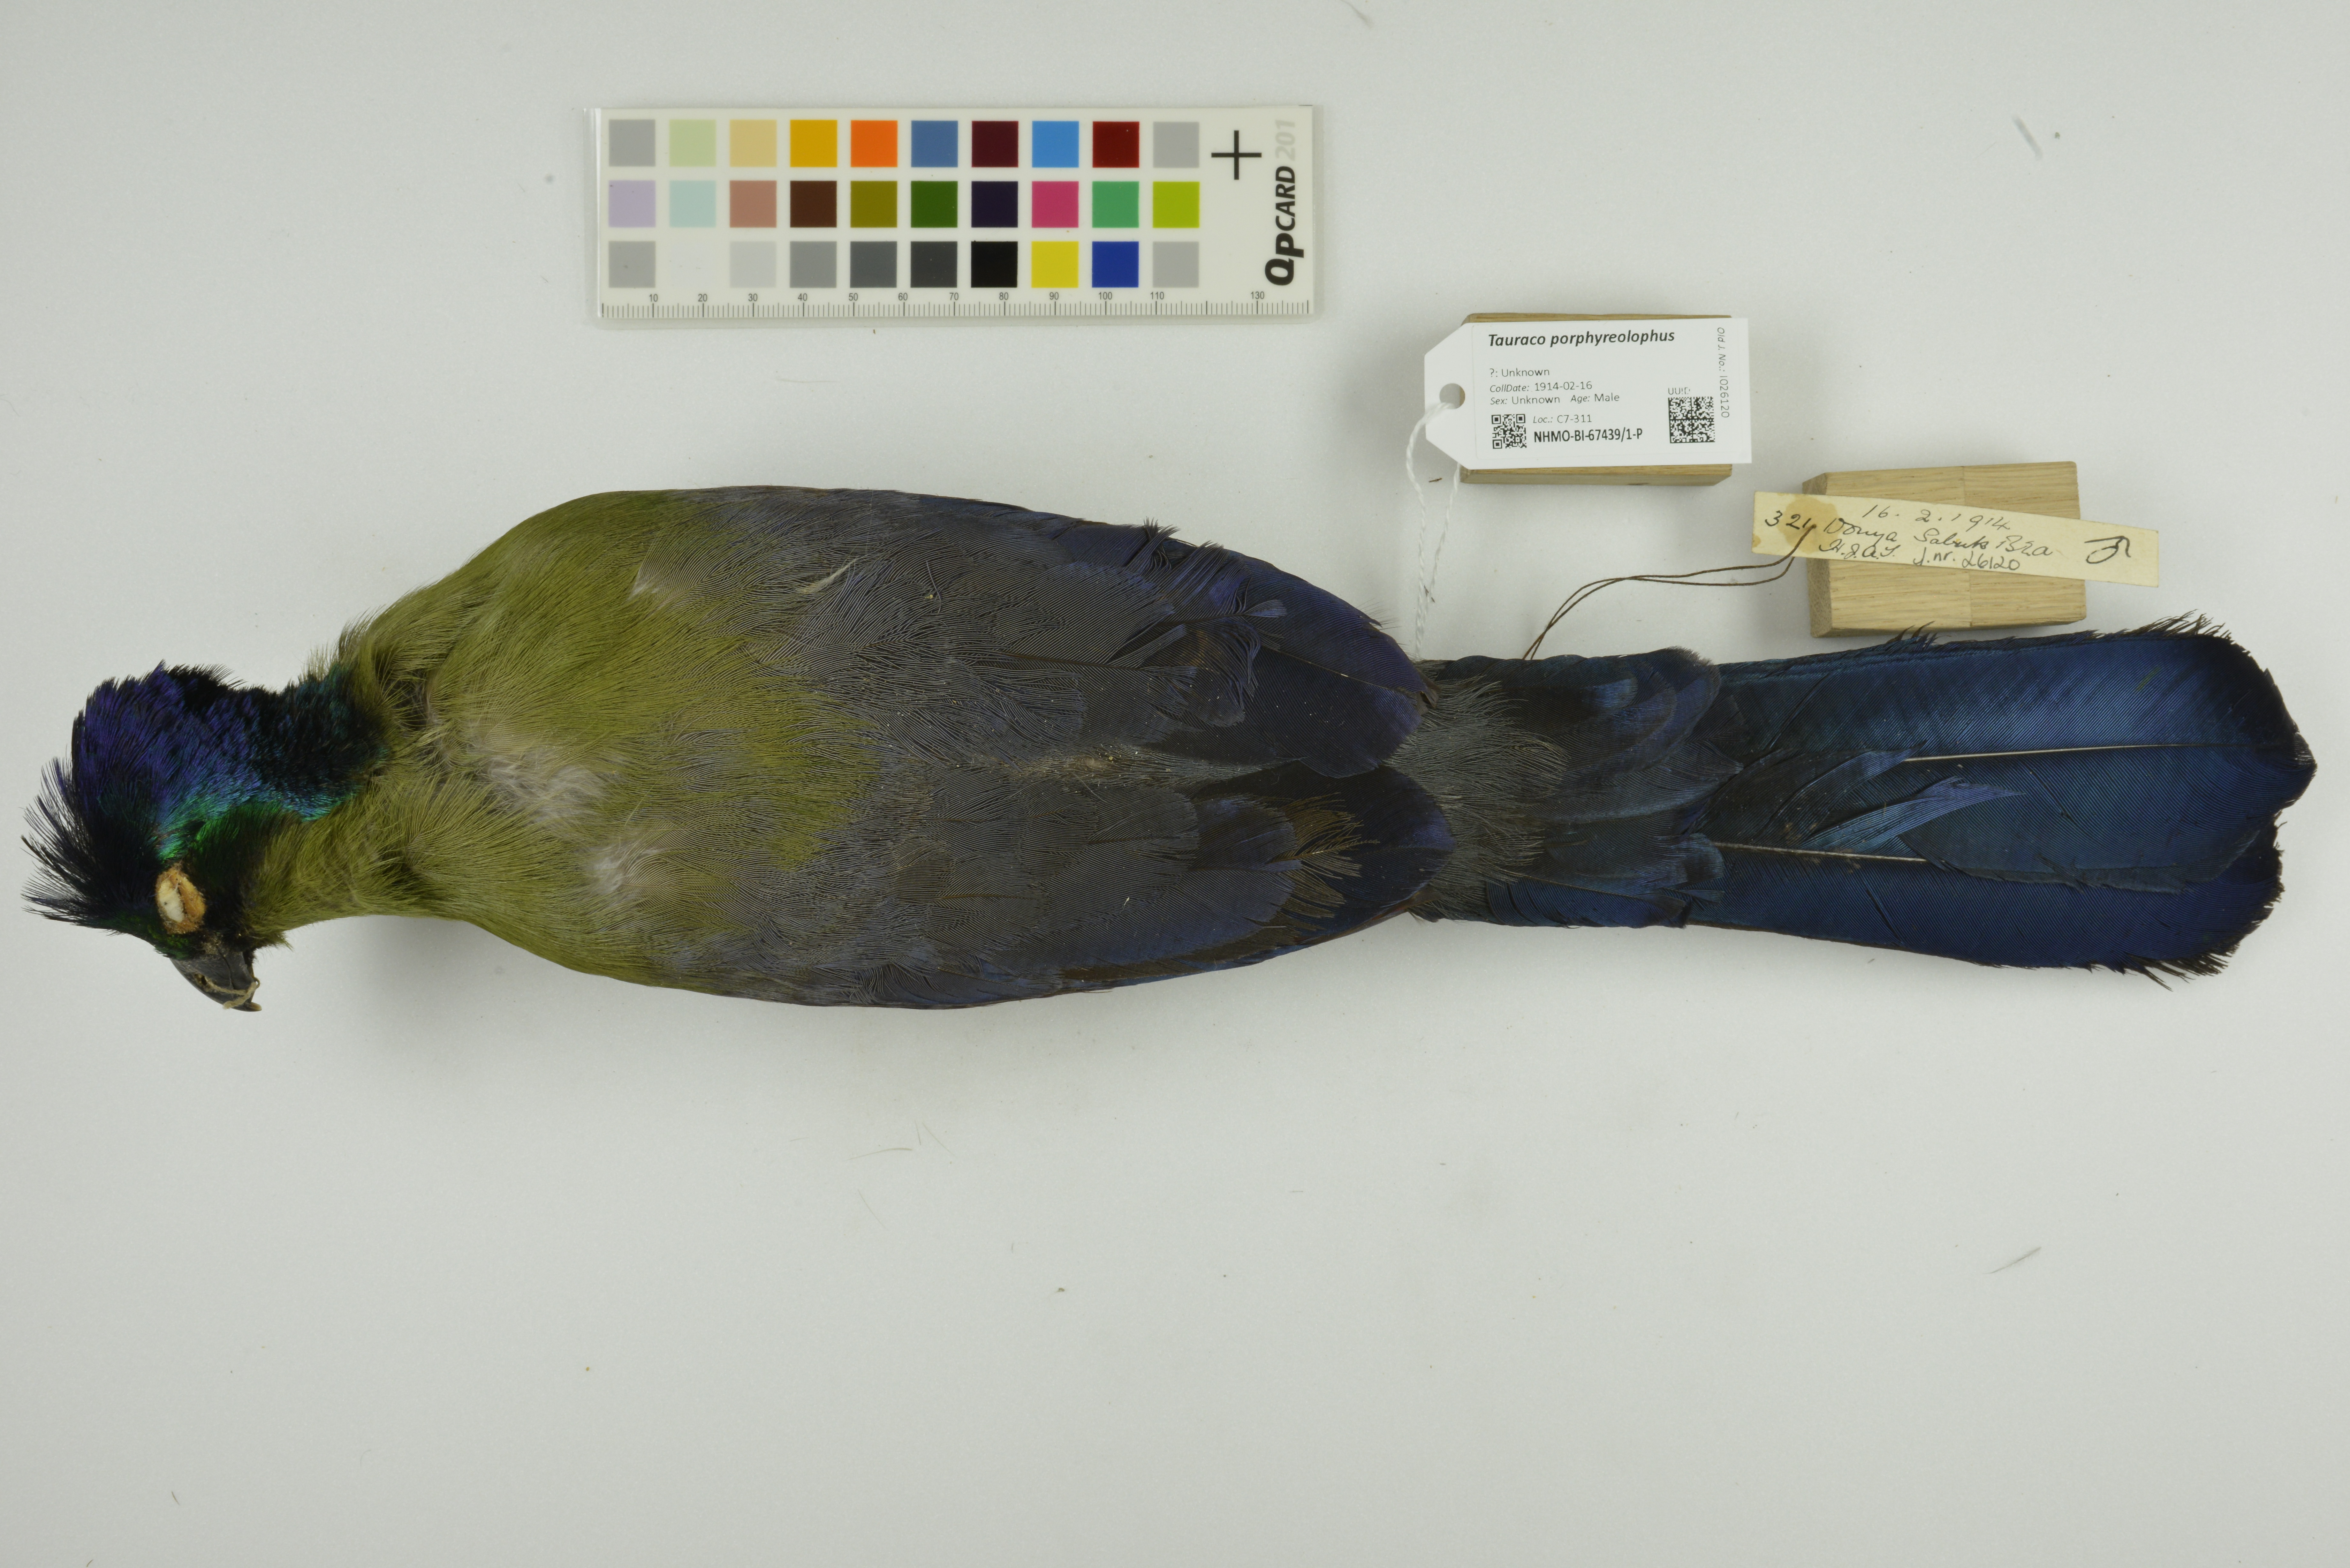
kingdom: Animalia
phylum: Chordata
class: Aves
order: Musophagiformes
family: Musophagidae
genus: Tauraco
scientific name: Tauraco porphyreolophus
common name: Purple-crested turaco
